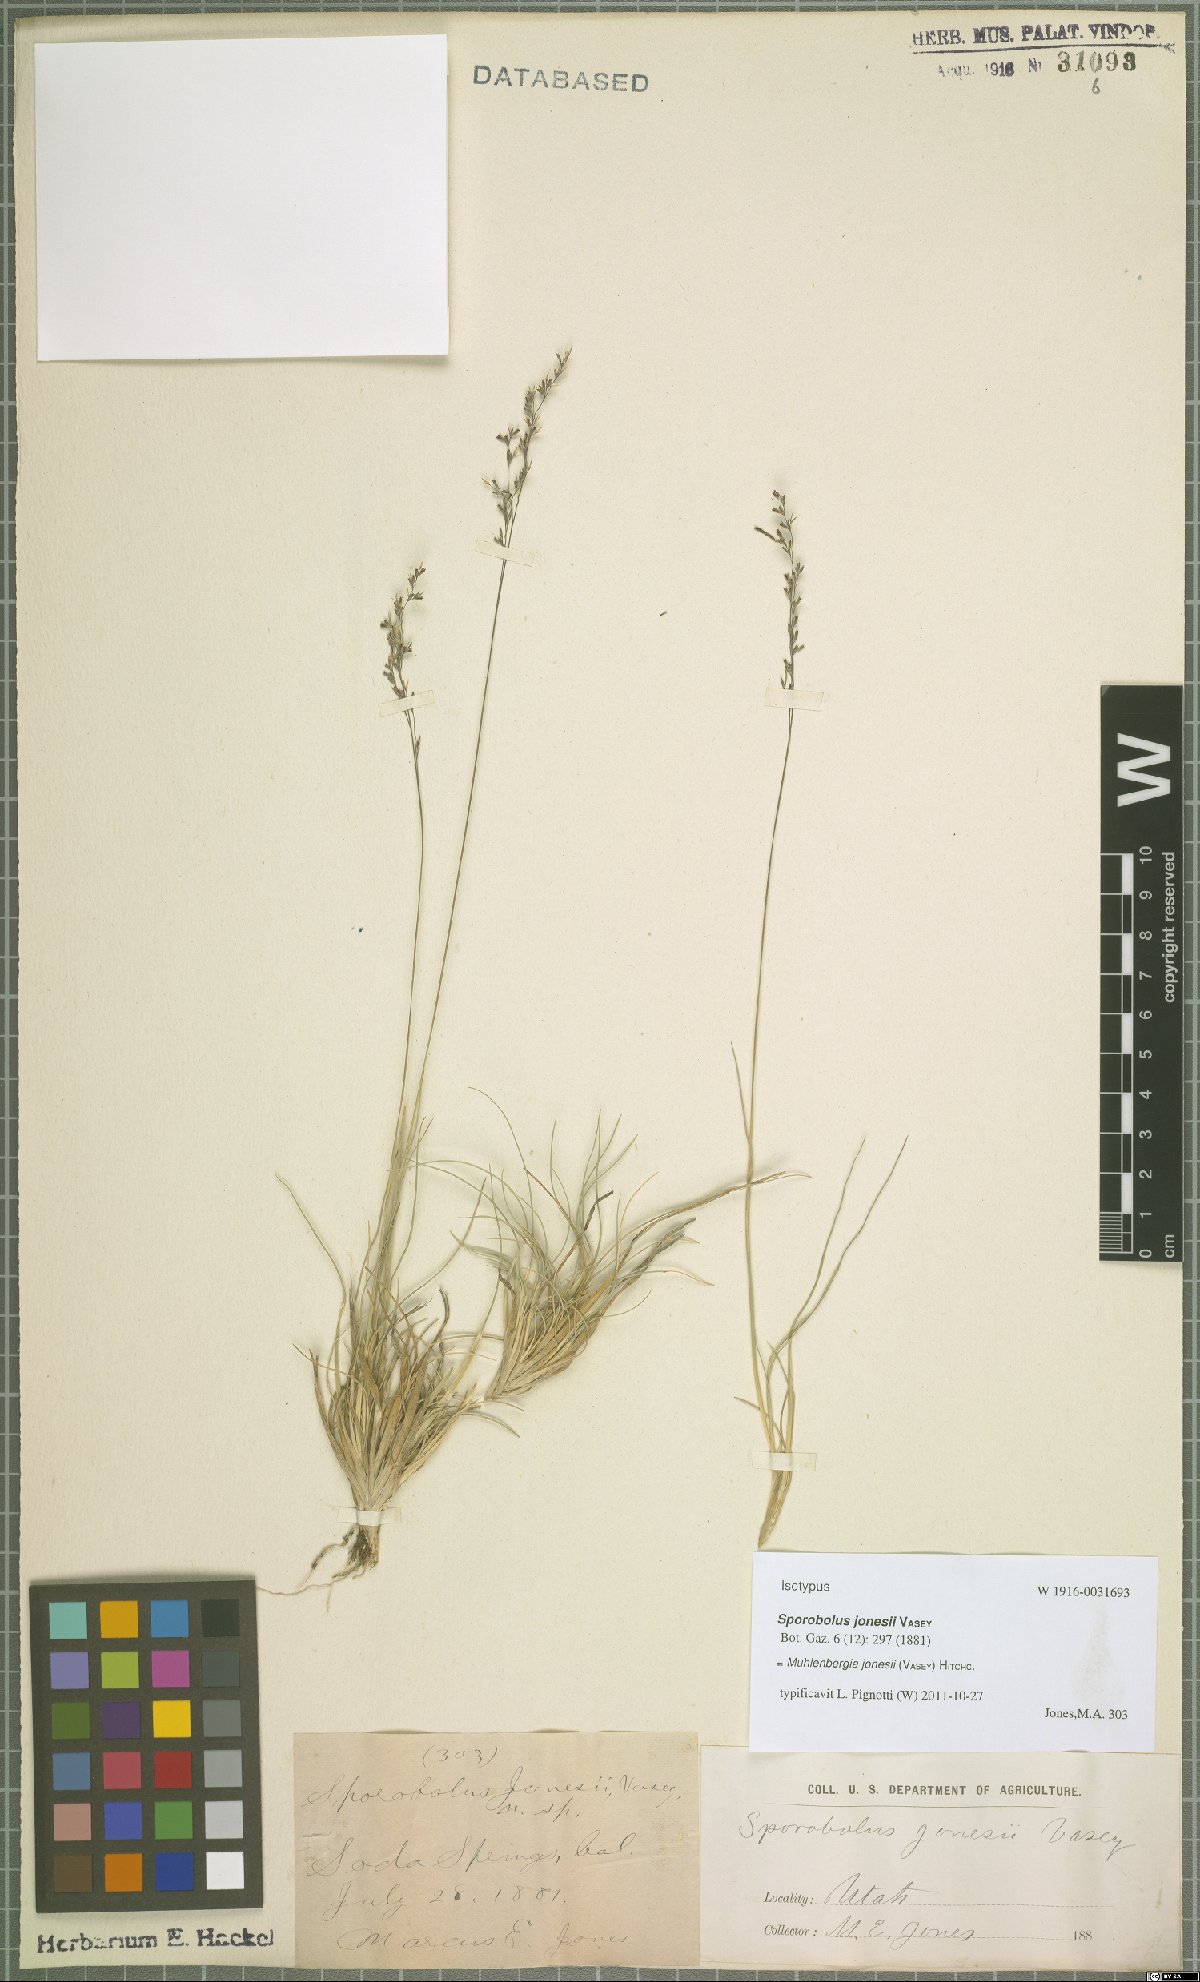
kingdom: Plantae
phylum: Tracheophyta
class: Liliopsida
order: Poales
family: Poaceae
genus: Muhlenbergia
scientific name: Muhlenbergia jonesii
